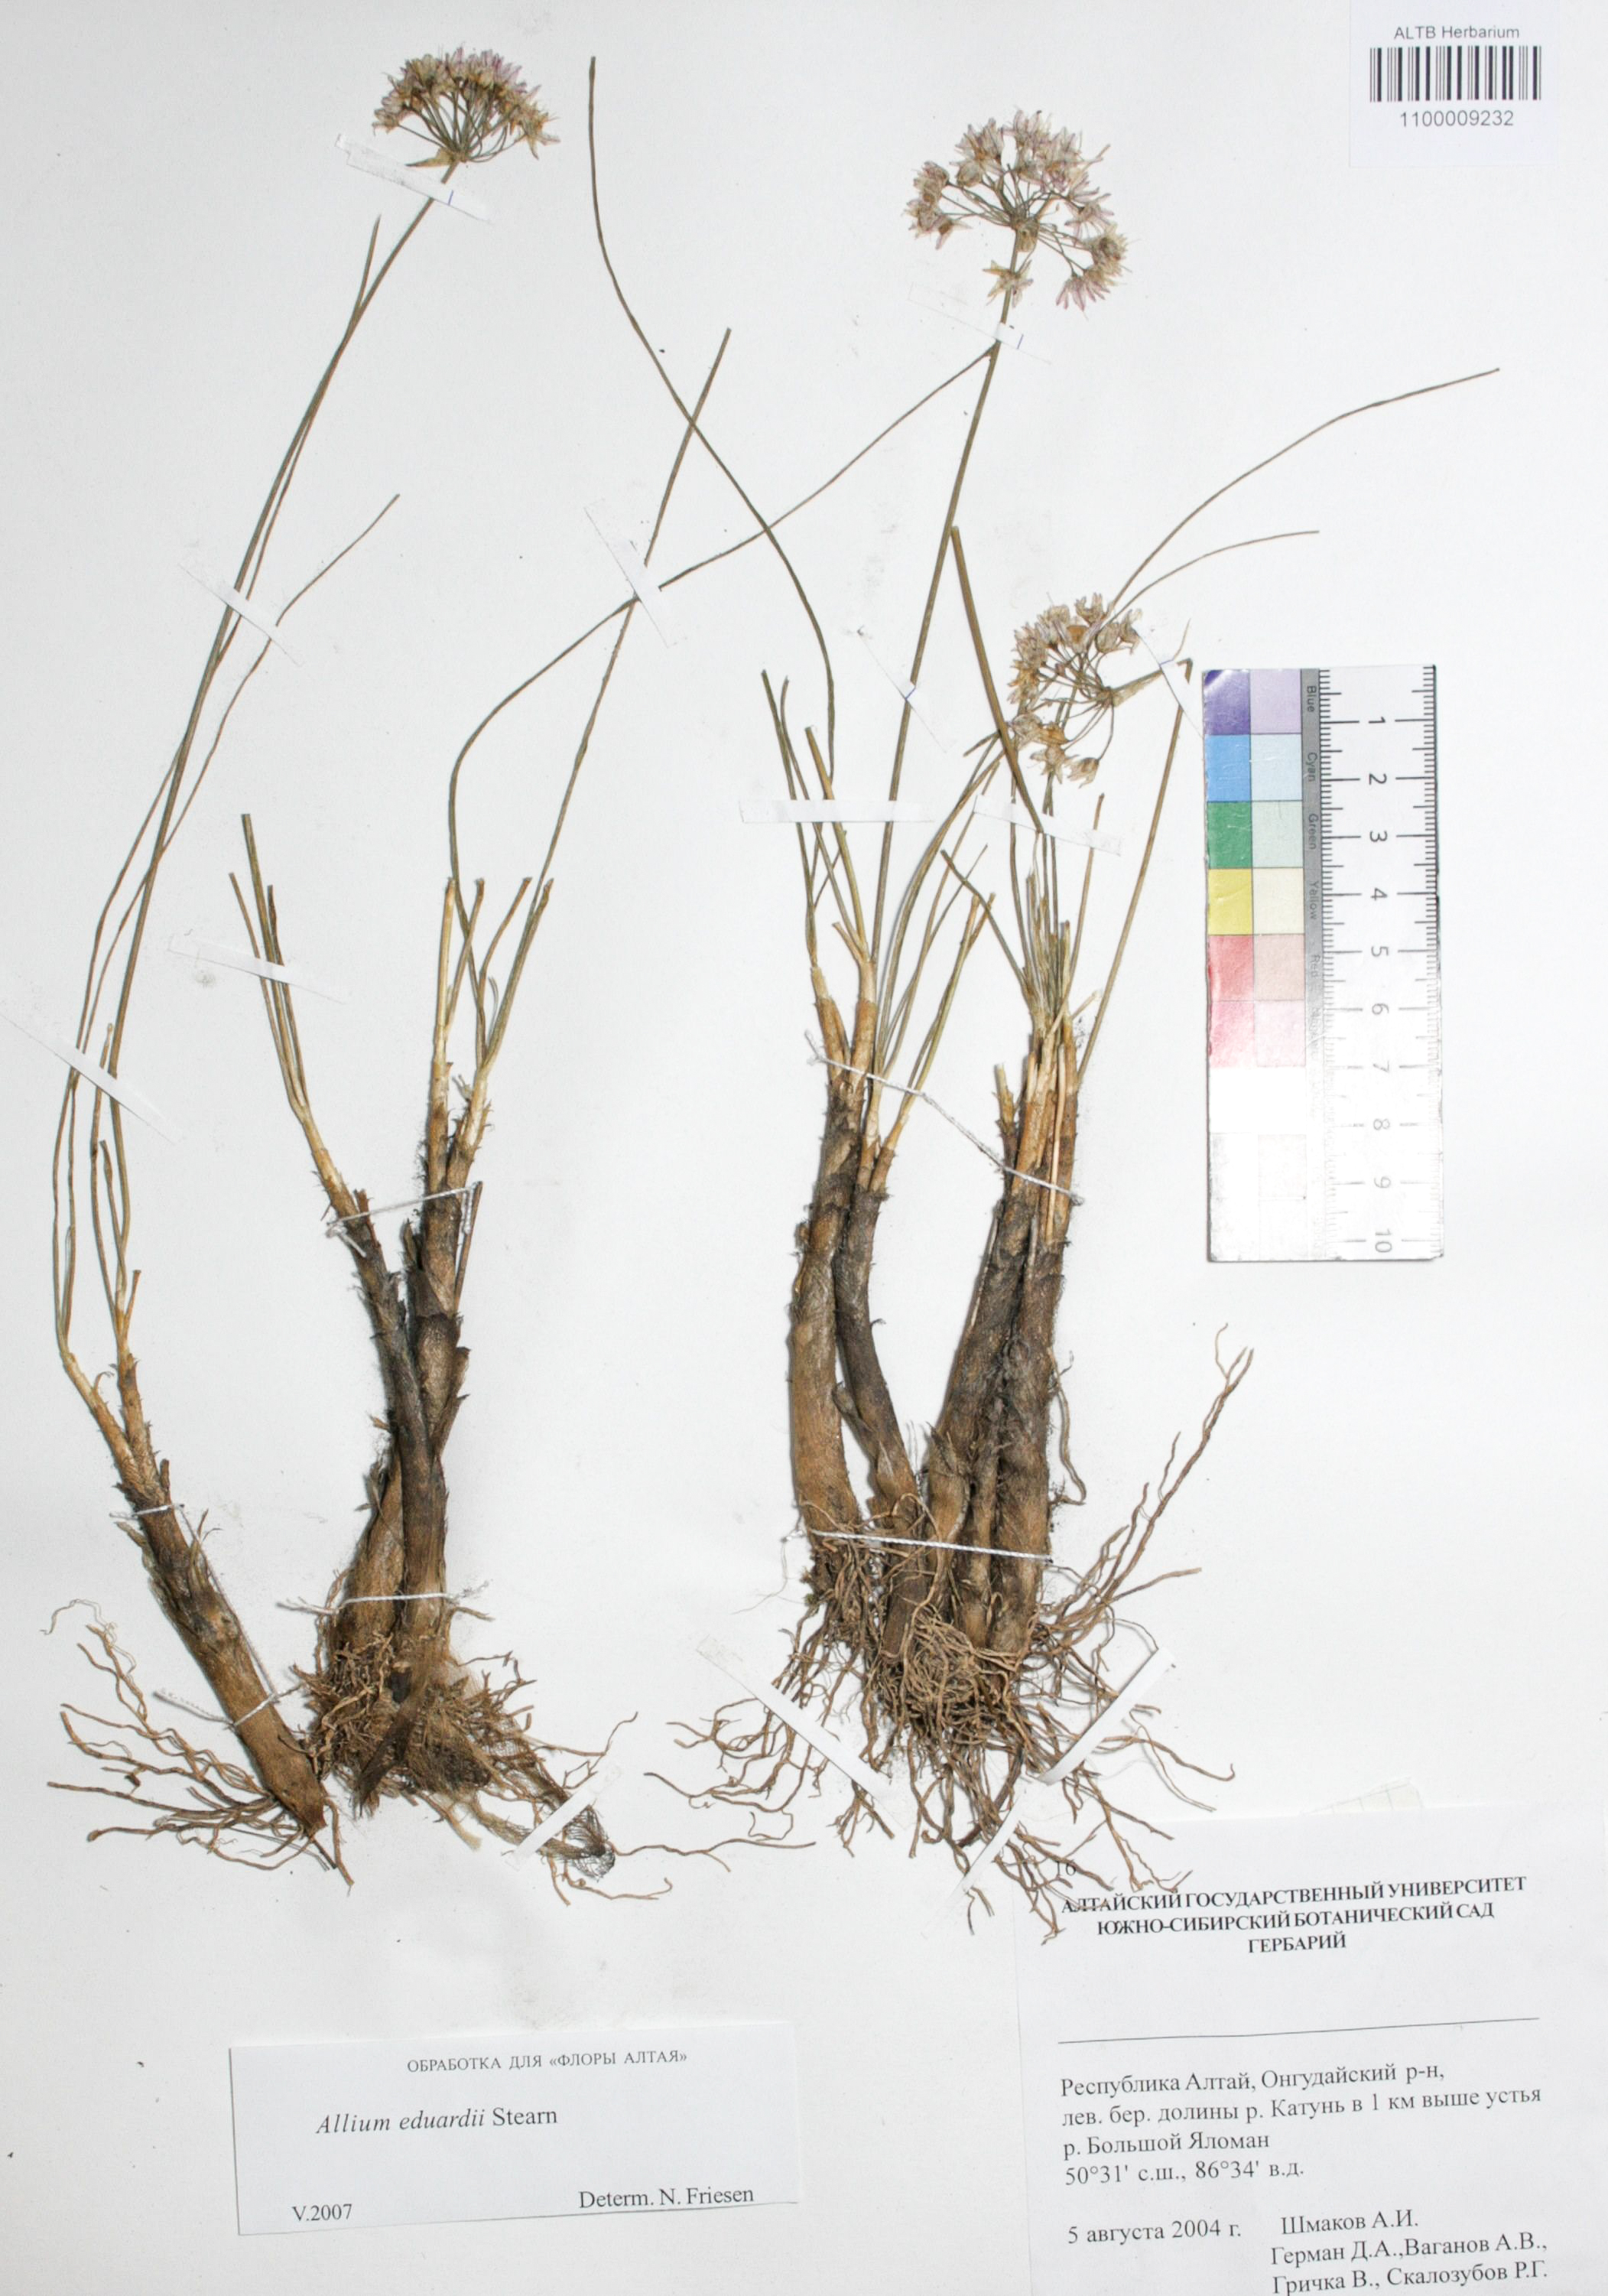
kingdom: Plantae
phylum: Tracheophyta
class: Liliopsida
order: Asparagales
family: Amaryllidaceae
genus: Allium
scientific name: Allium eduardi
